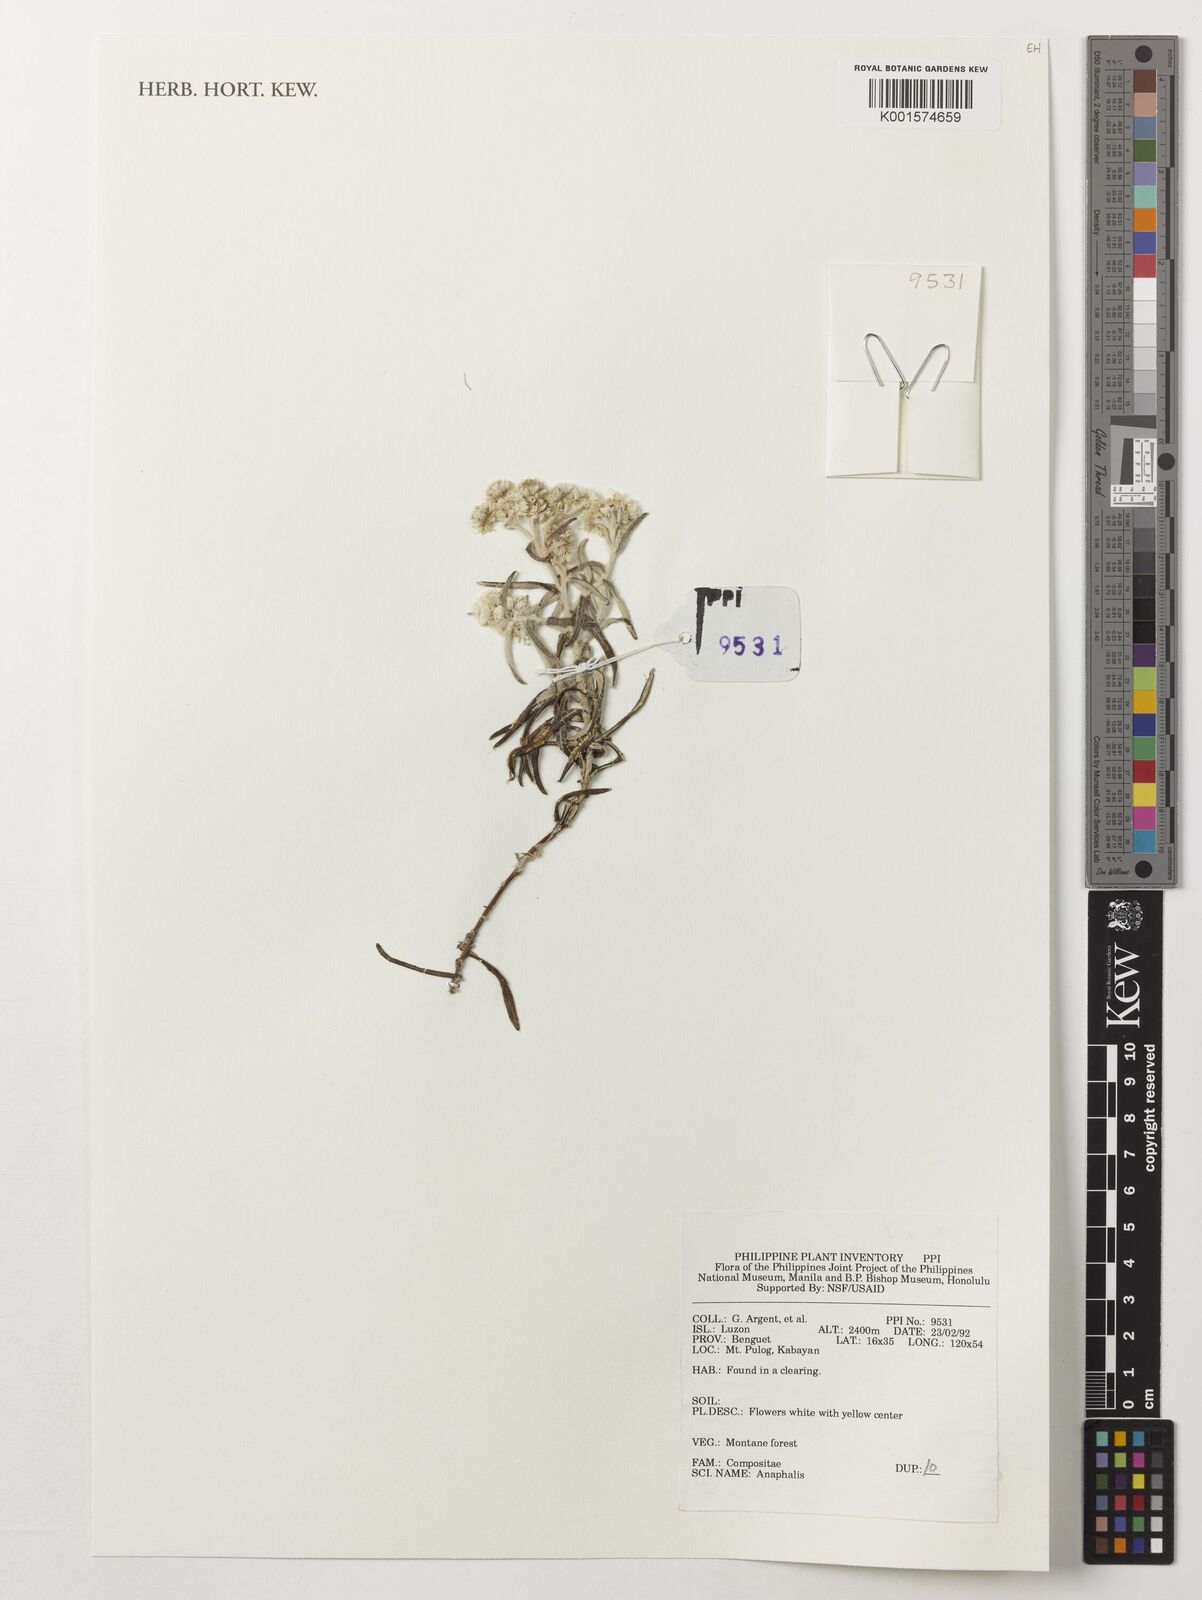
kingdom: Plantae
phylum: Tracheophyta
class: Magnoliopsida
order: Asterales
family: Asteraceae
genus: Anaphalis
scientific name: Anaphalis
